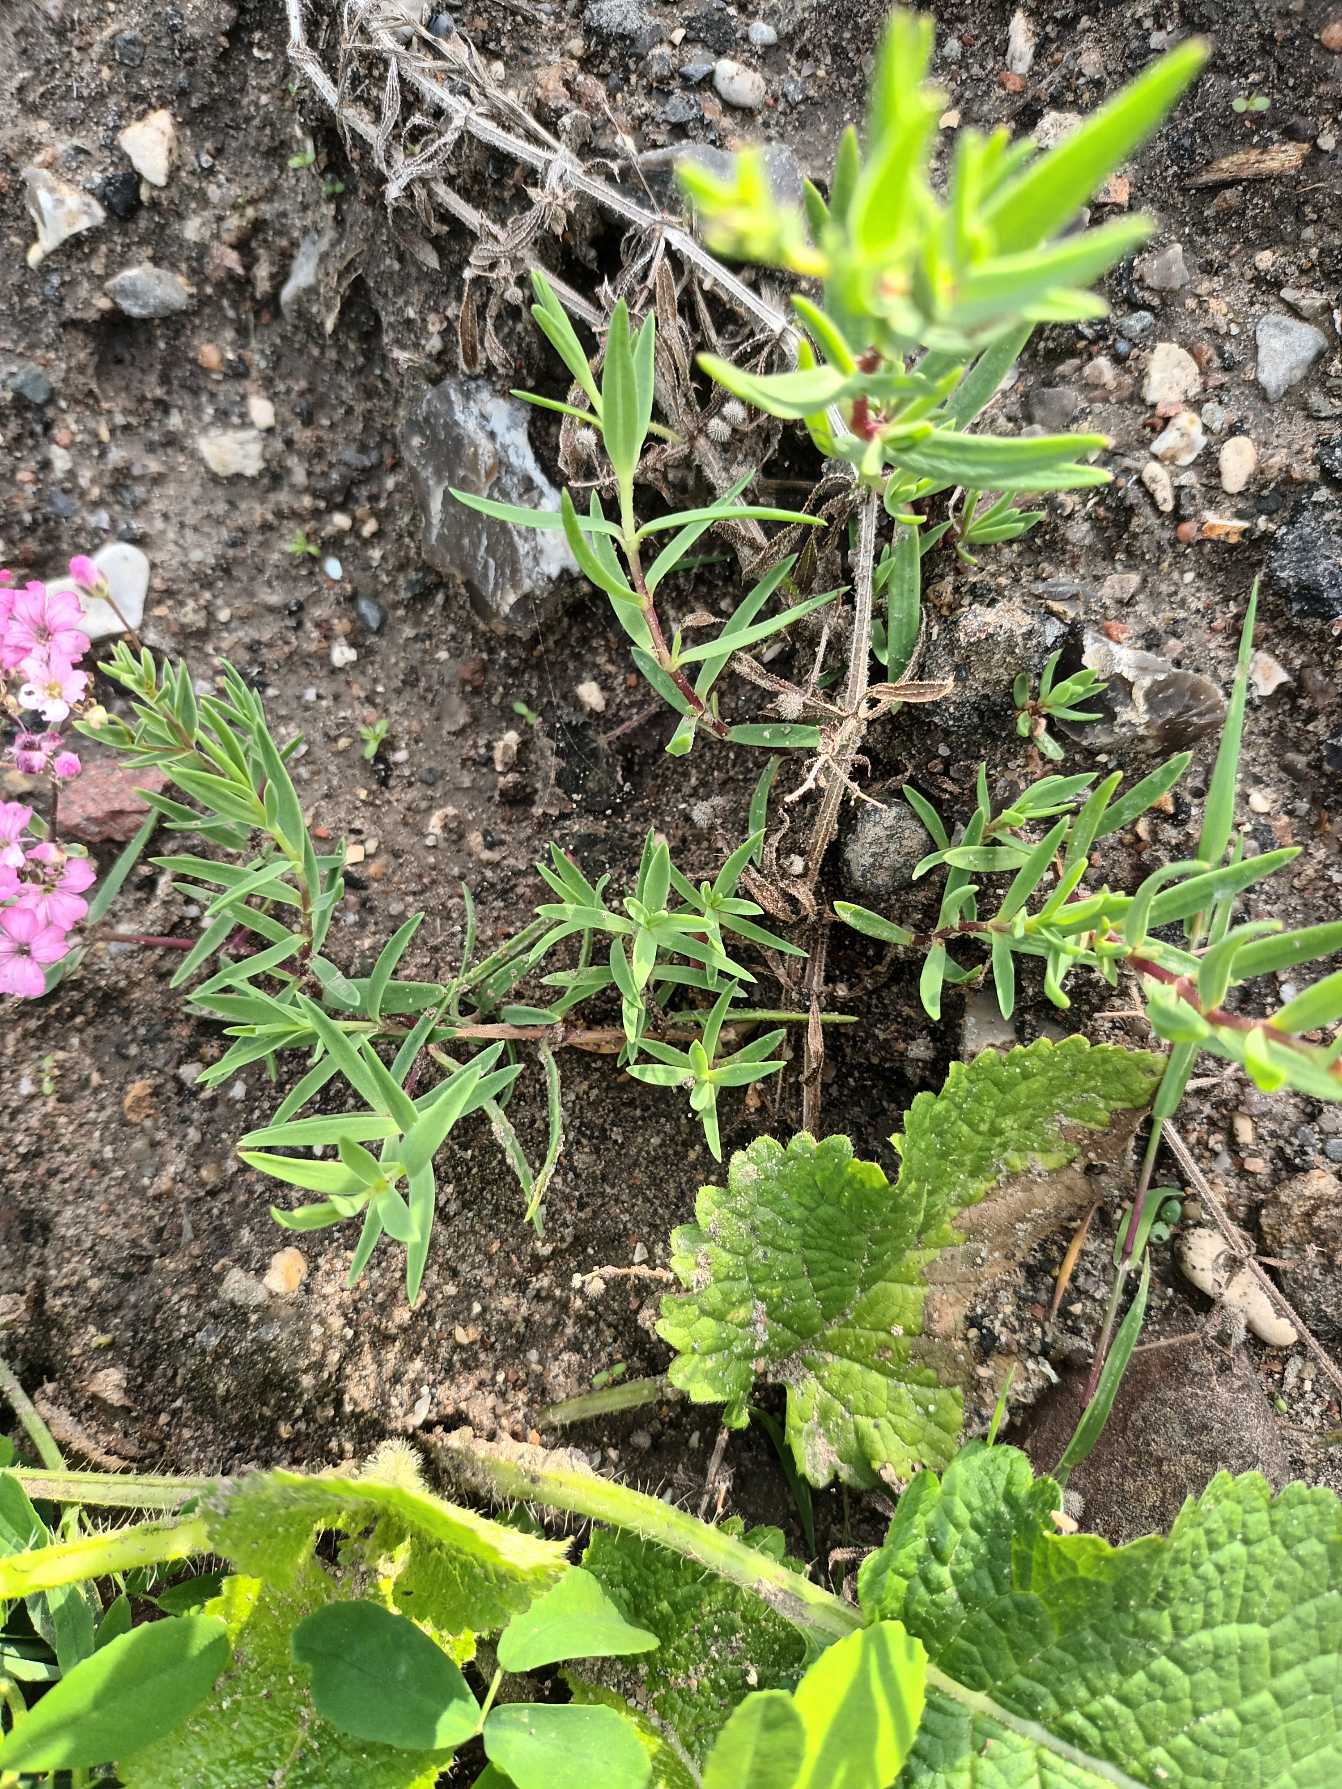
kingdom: Plantae
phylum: Tracheophyta
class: Magnoliopsida
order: Caryophyllales
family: Caryophyllaceae
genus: Psammophiliella
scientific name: Psammophiliella muralis
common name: Mur-gipsurt
